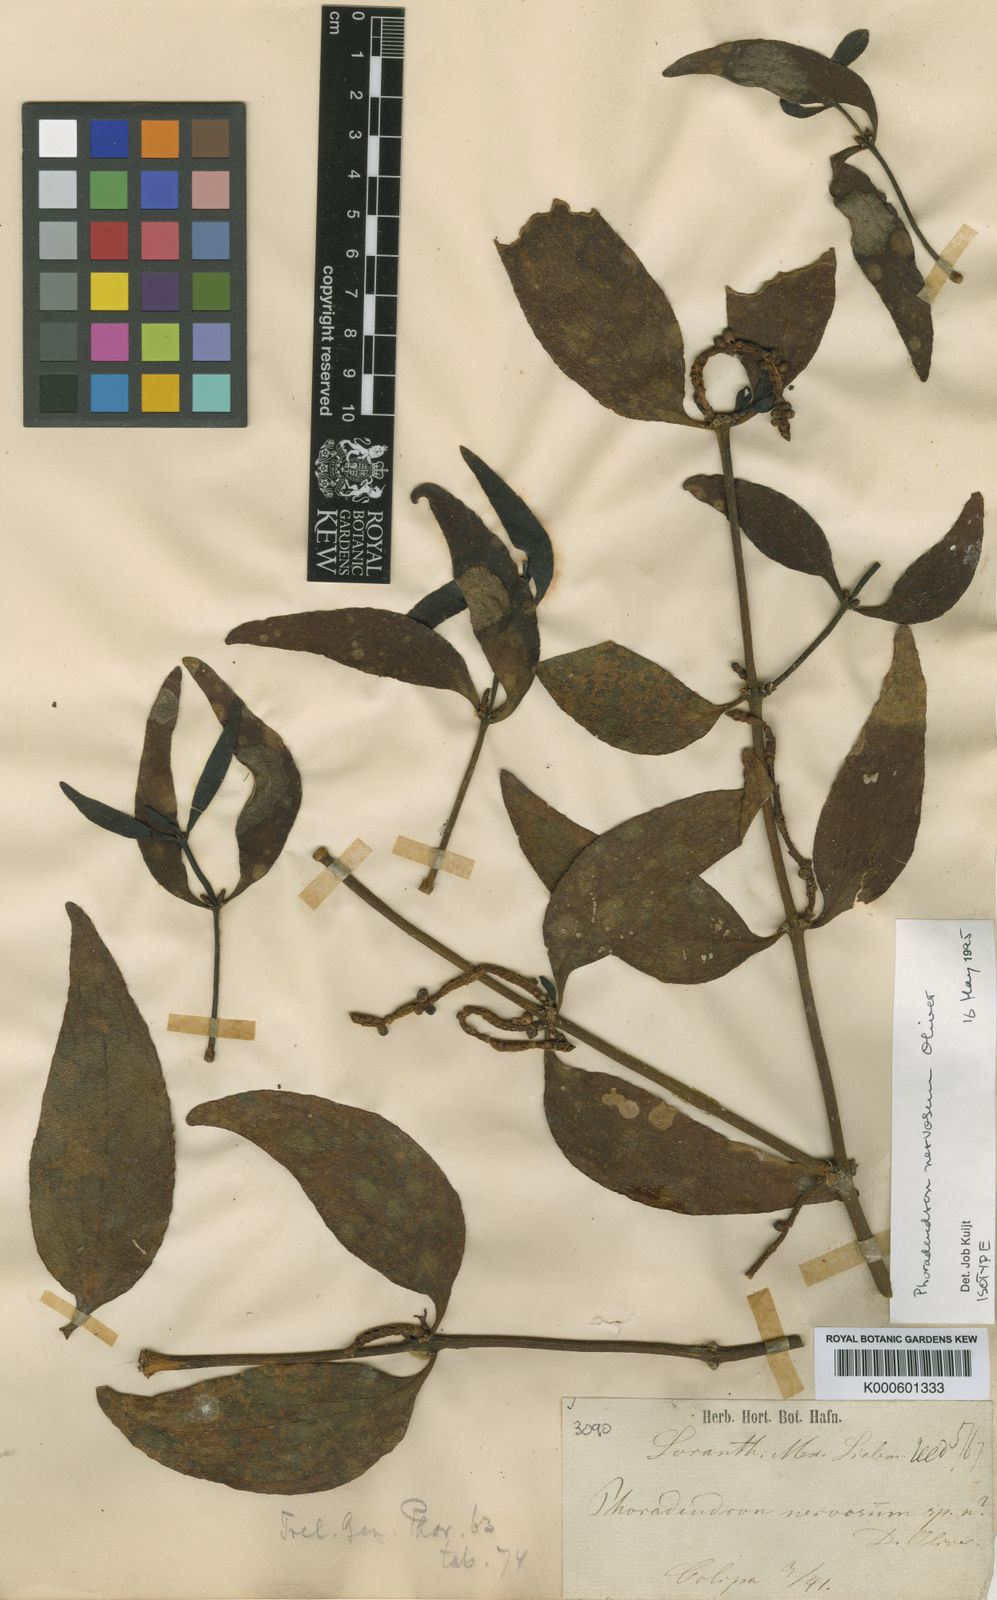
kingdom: Plantae
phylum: Tracheophyta
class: Magnoliopsida
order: Santalales
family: Viscaceae
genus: Phoradendron
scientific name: Phoradendron nervosum
